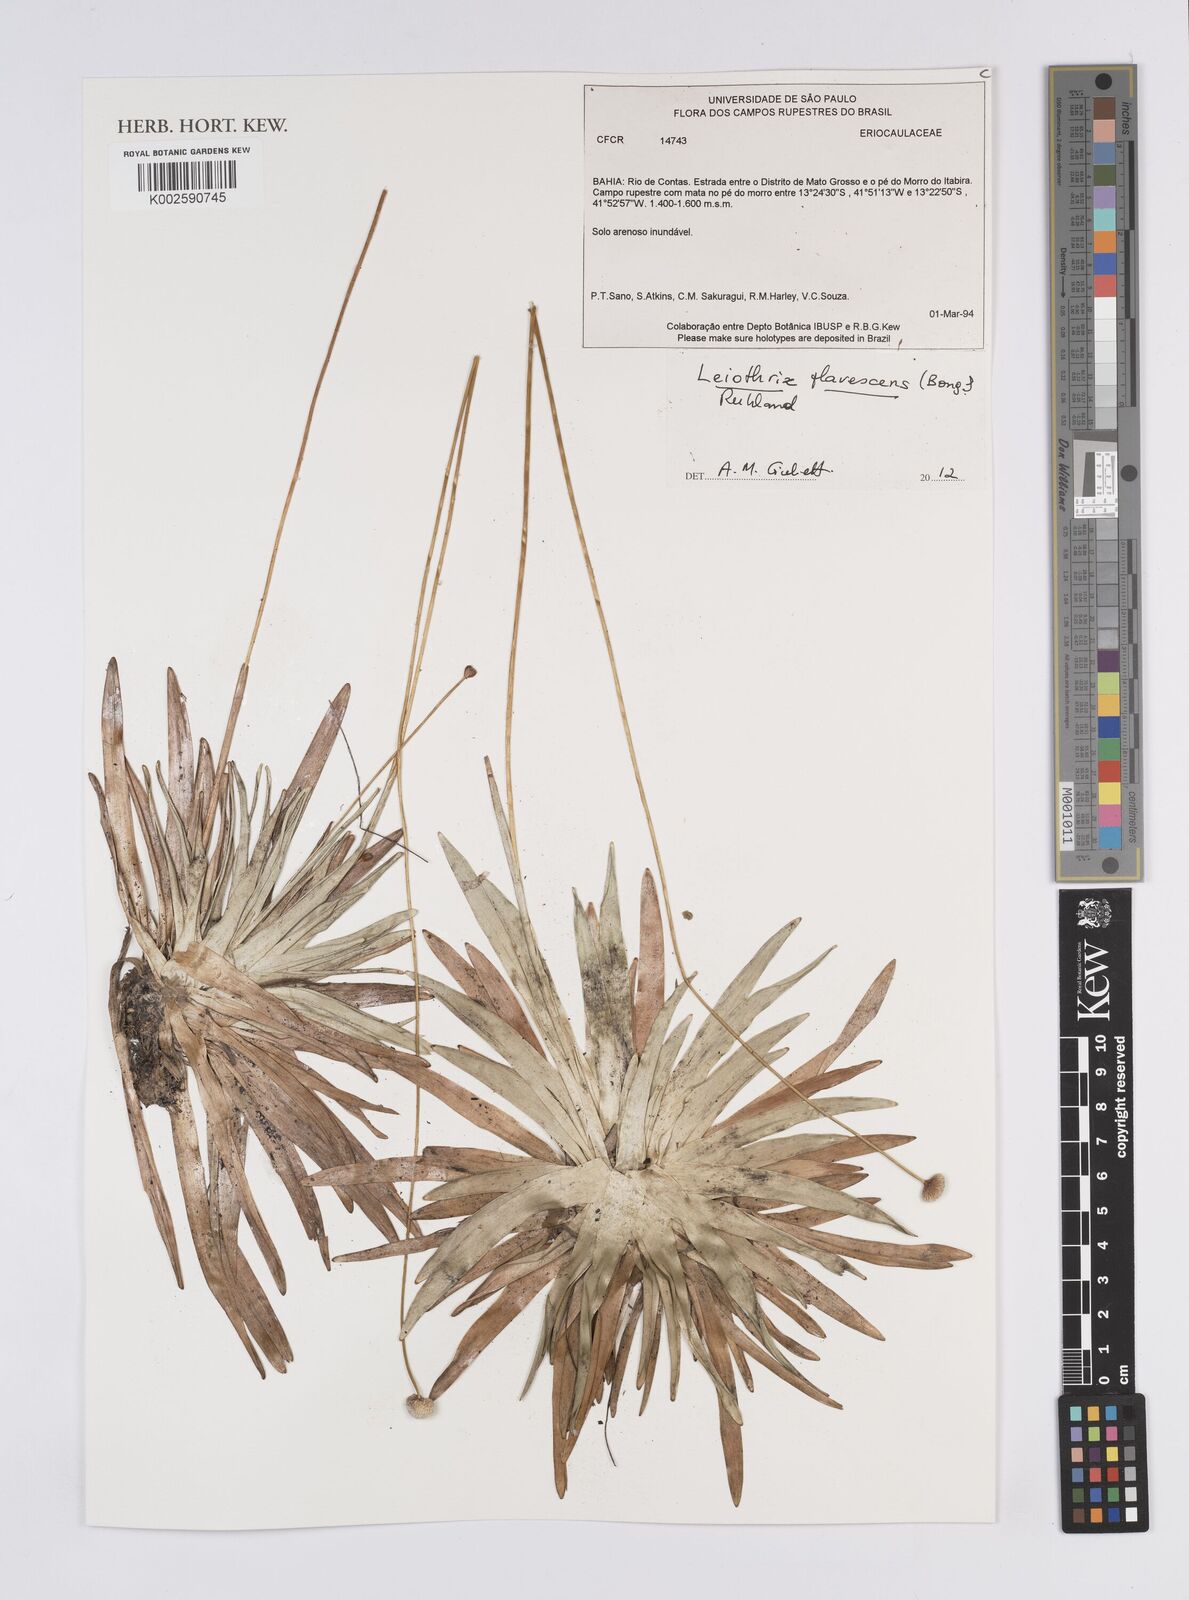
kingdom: Plantae
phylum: Tracheophyta
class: Liliopsida
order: Poales
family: Eriocaulaceae
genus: Leiothrix
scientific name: Leiothrix flavescens
